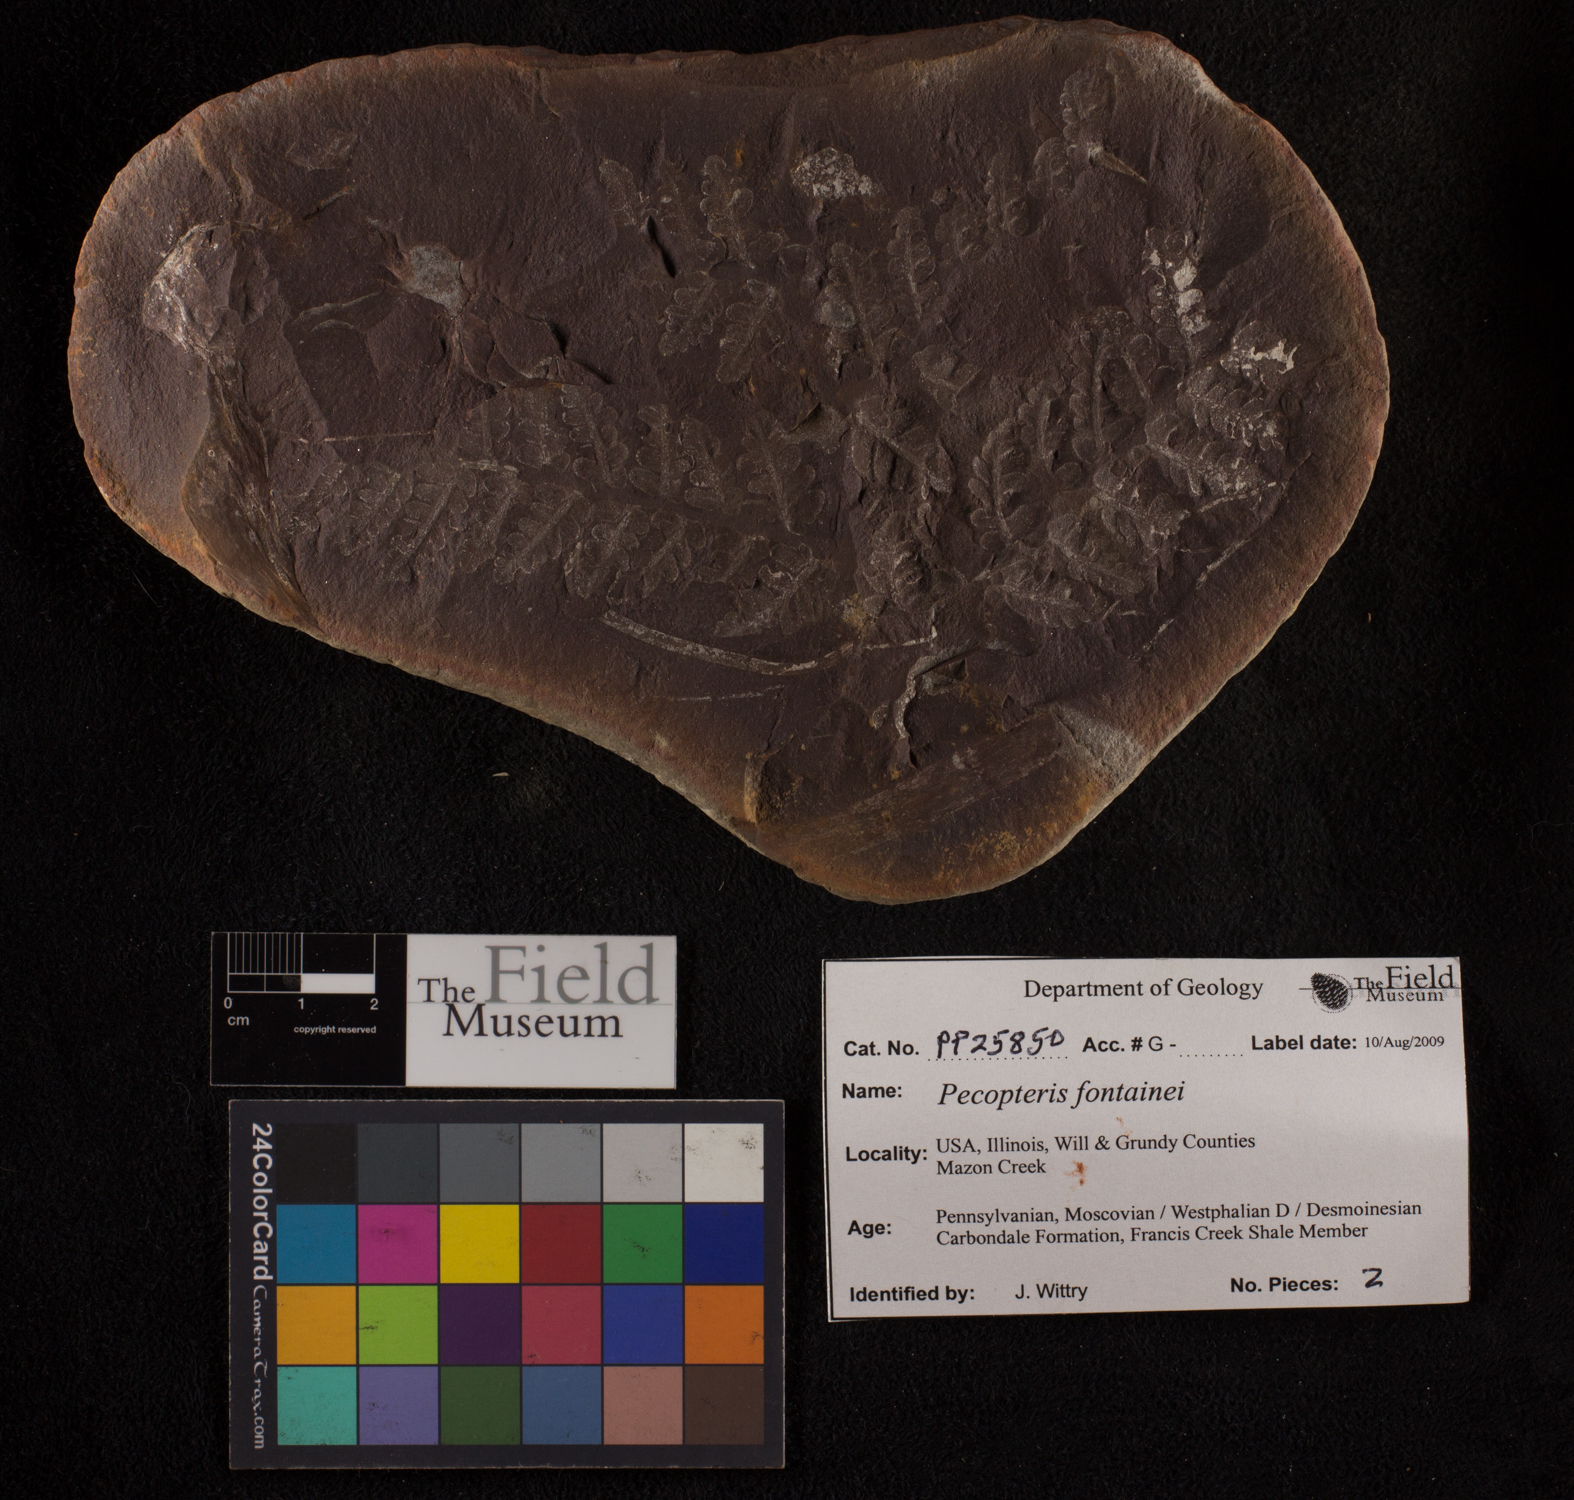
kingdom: Plantae
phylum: Tracheophyta
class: Polypodiopsida
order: Marattiales
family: Asterothecaceae
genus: Pecopteris
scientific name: Pecopteris
